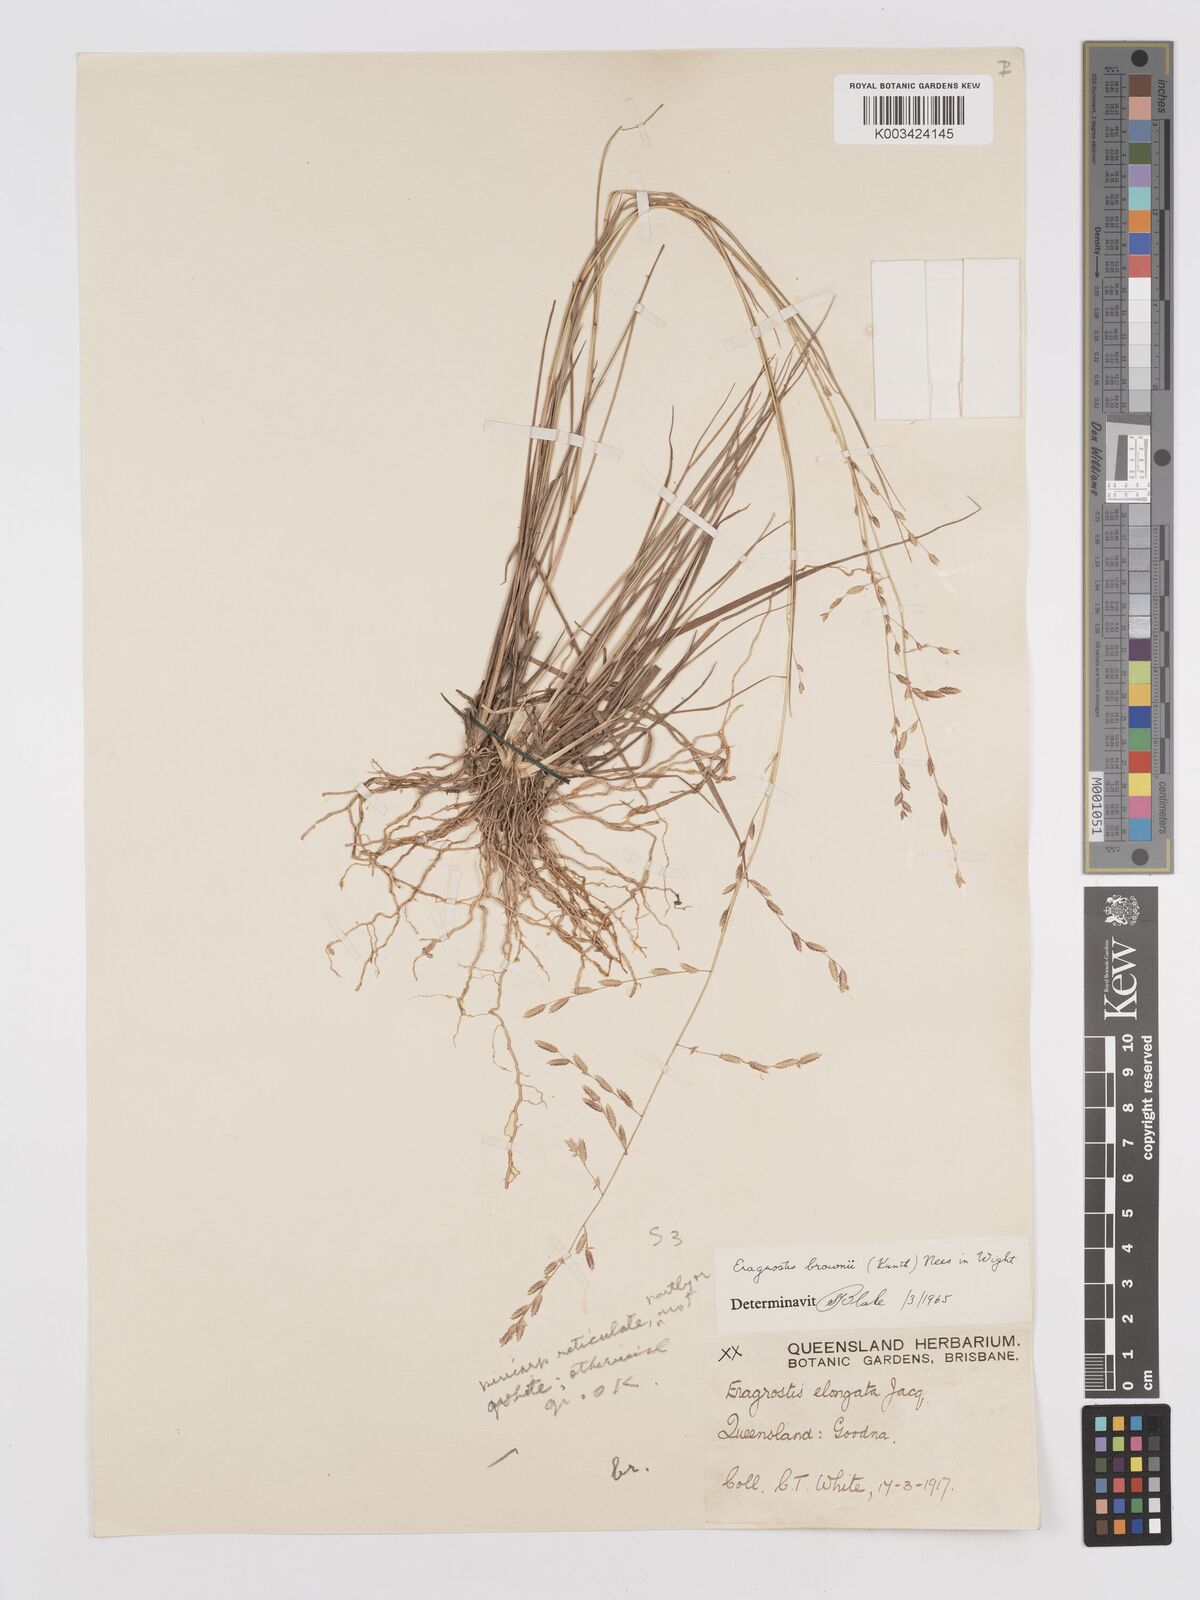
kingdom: Plantae
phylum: Tracheophyta
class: Liliopsida
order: Poales
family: Poaceae
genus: Eragrostis
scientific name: Eragrostis brownii
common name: Lovegrass
